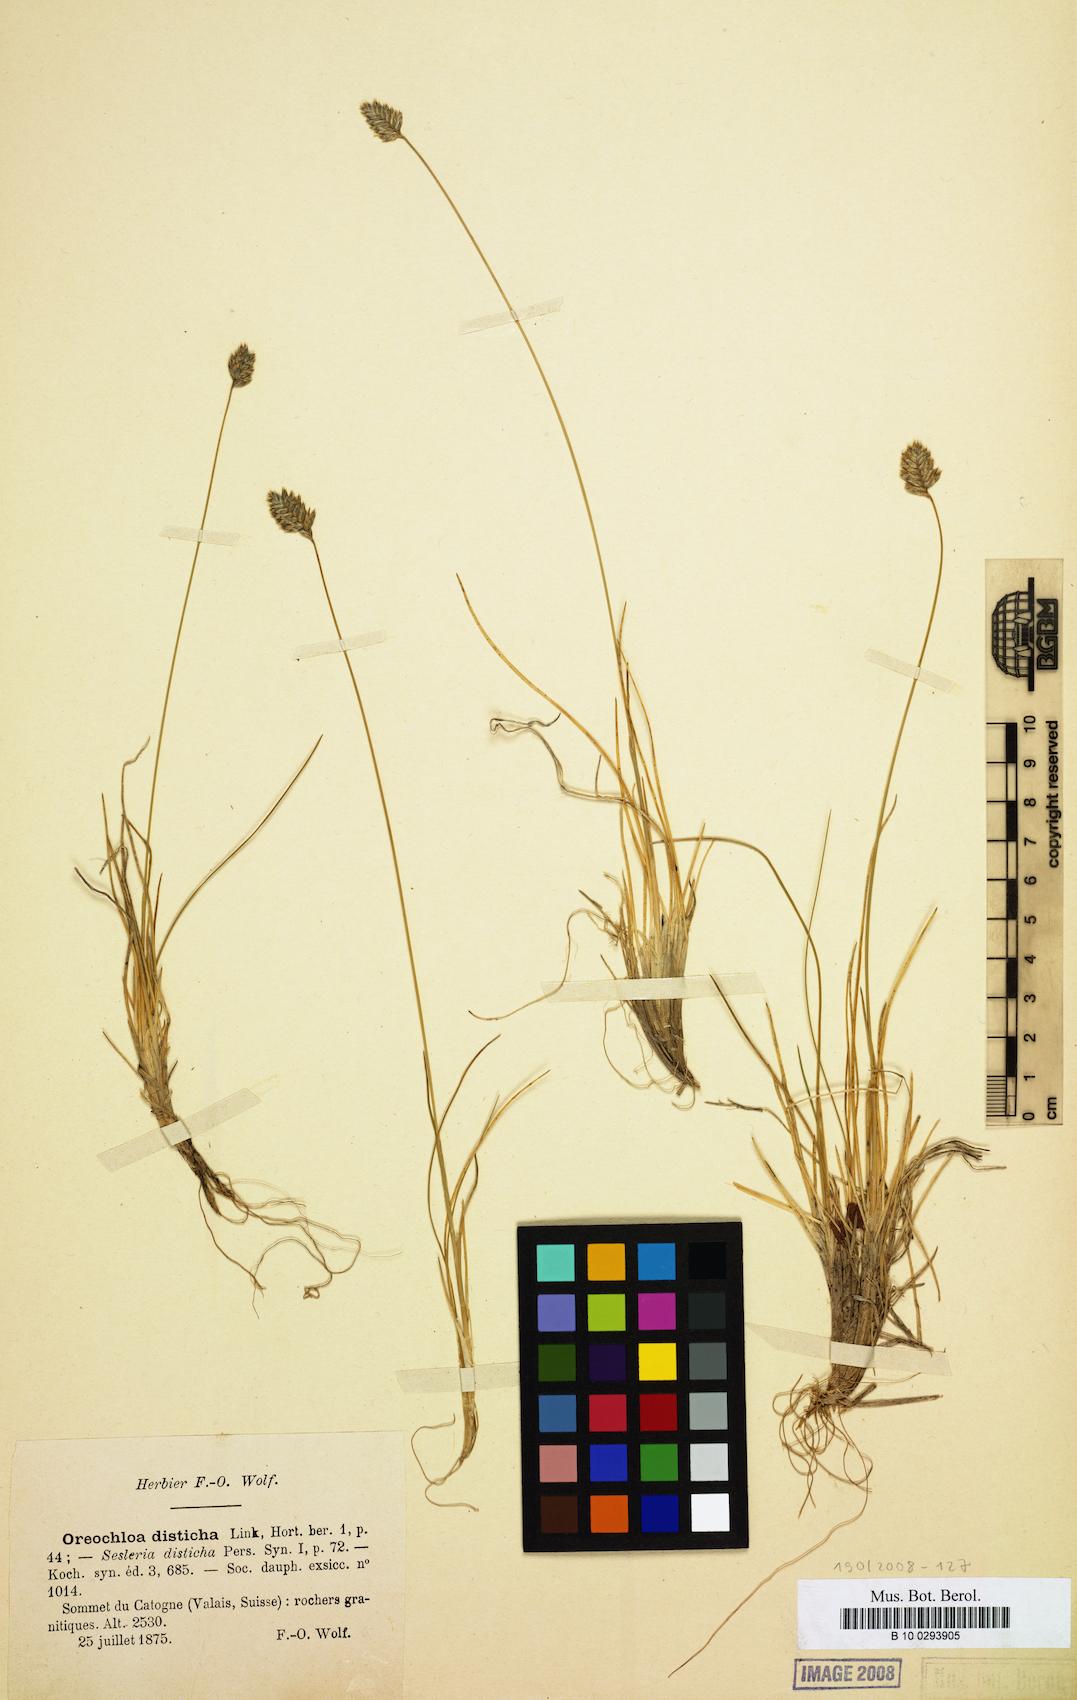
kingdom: Plantae
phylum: Tracheophyta
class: Liliopsida
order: Poales
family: Poaceae
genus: Oreochloa
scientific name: Oreochloa disticha
